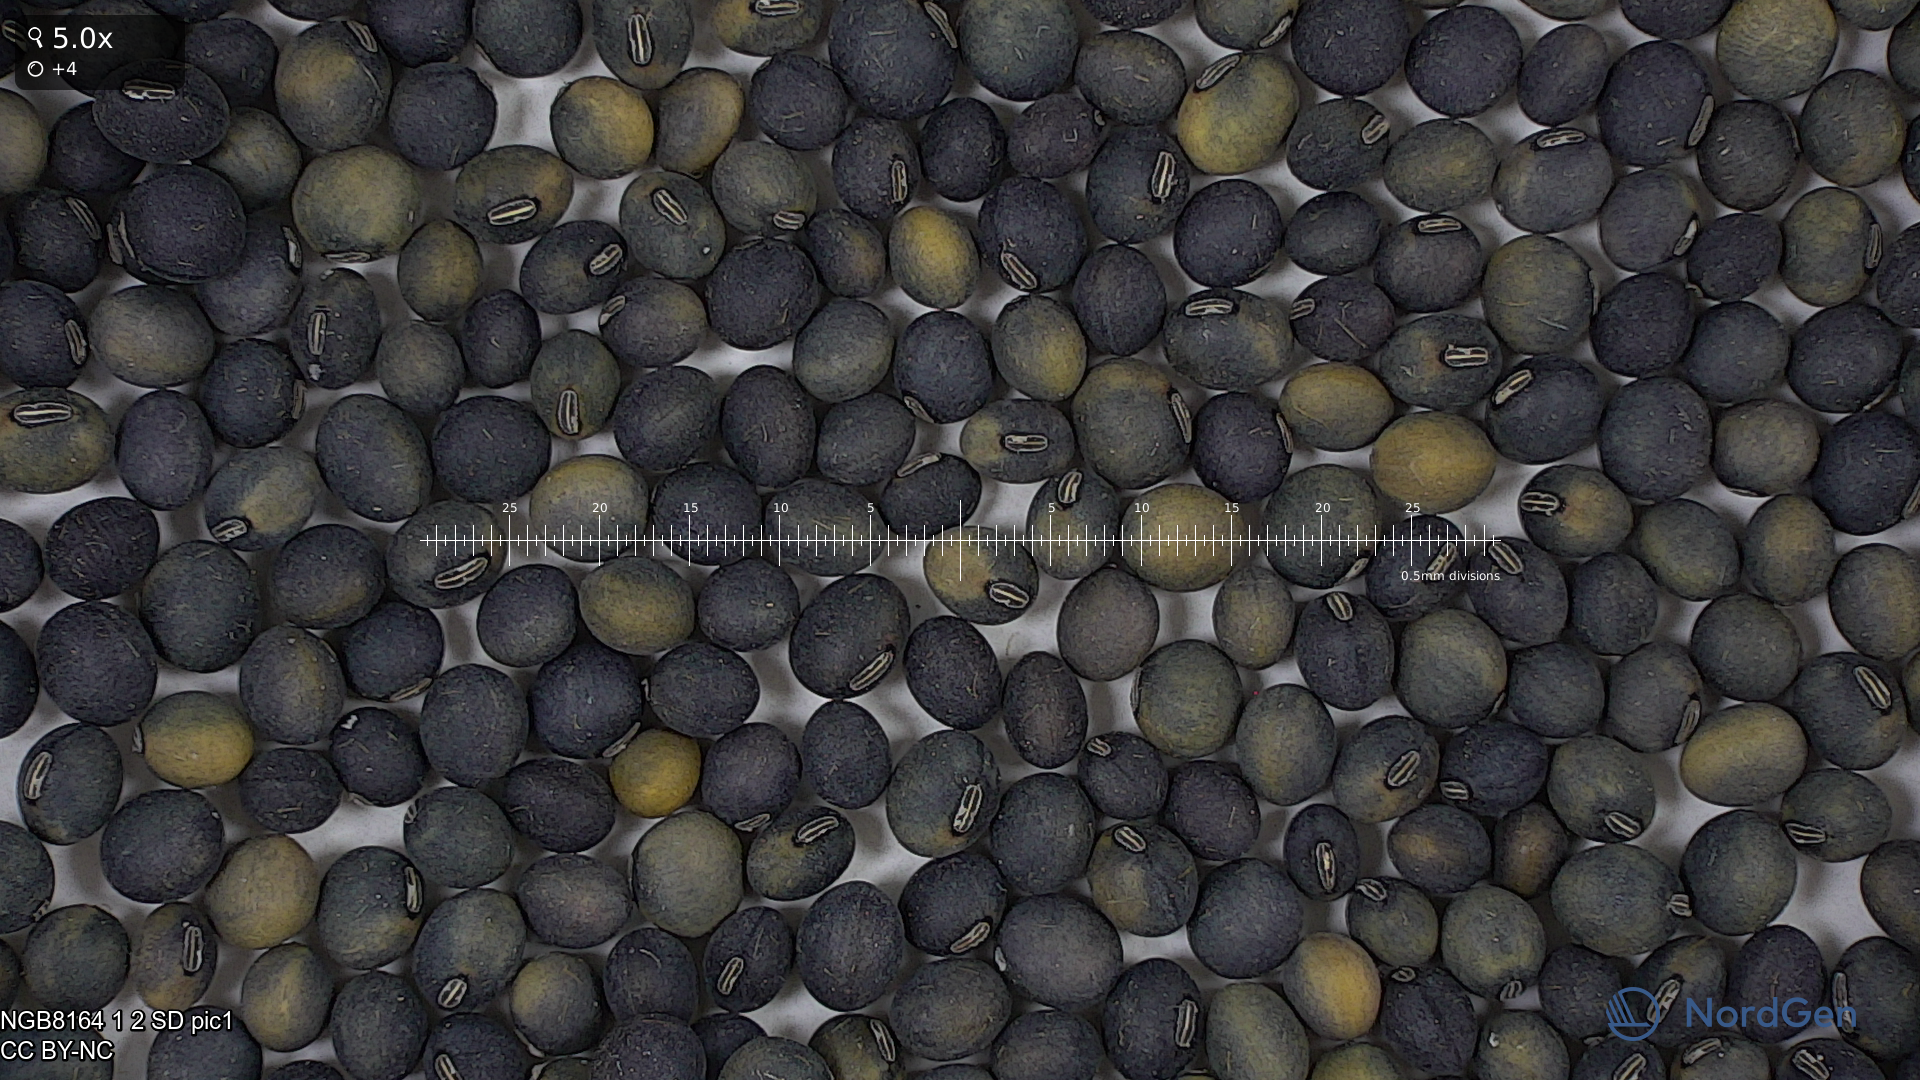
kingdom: Plantae
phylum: Tracheophyta
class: Magnoliopsida
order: Fabales
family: Fabaceae
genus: Glycine
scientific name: Glycine max
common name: Soya-bean
